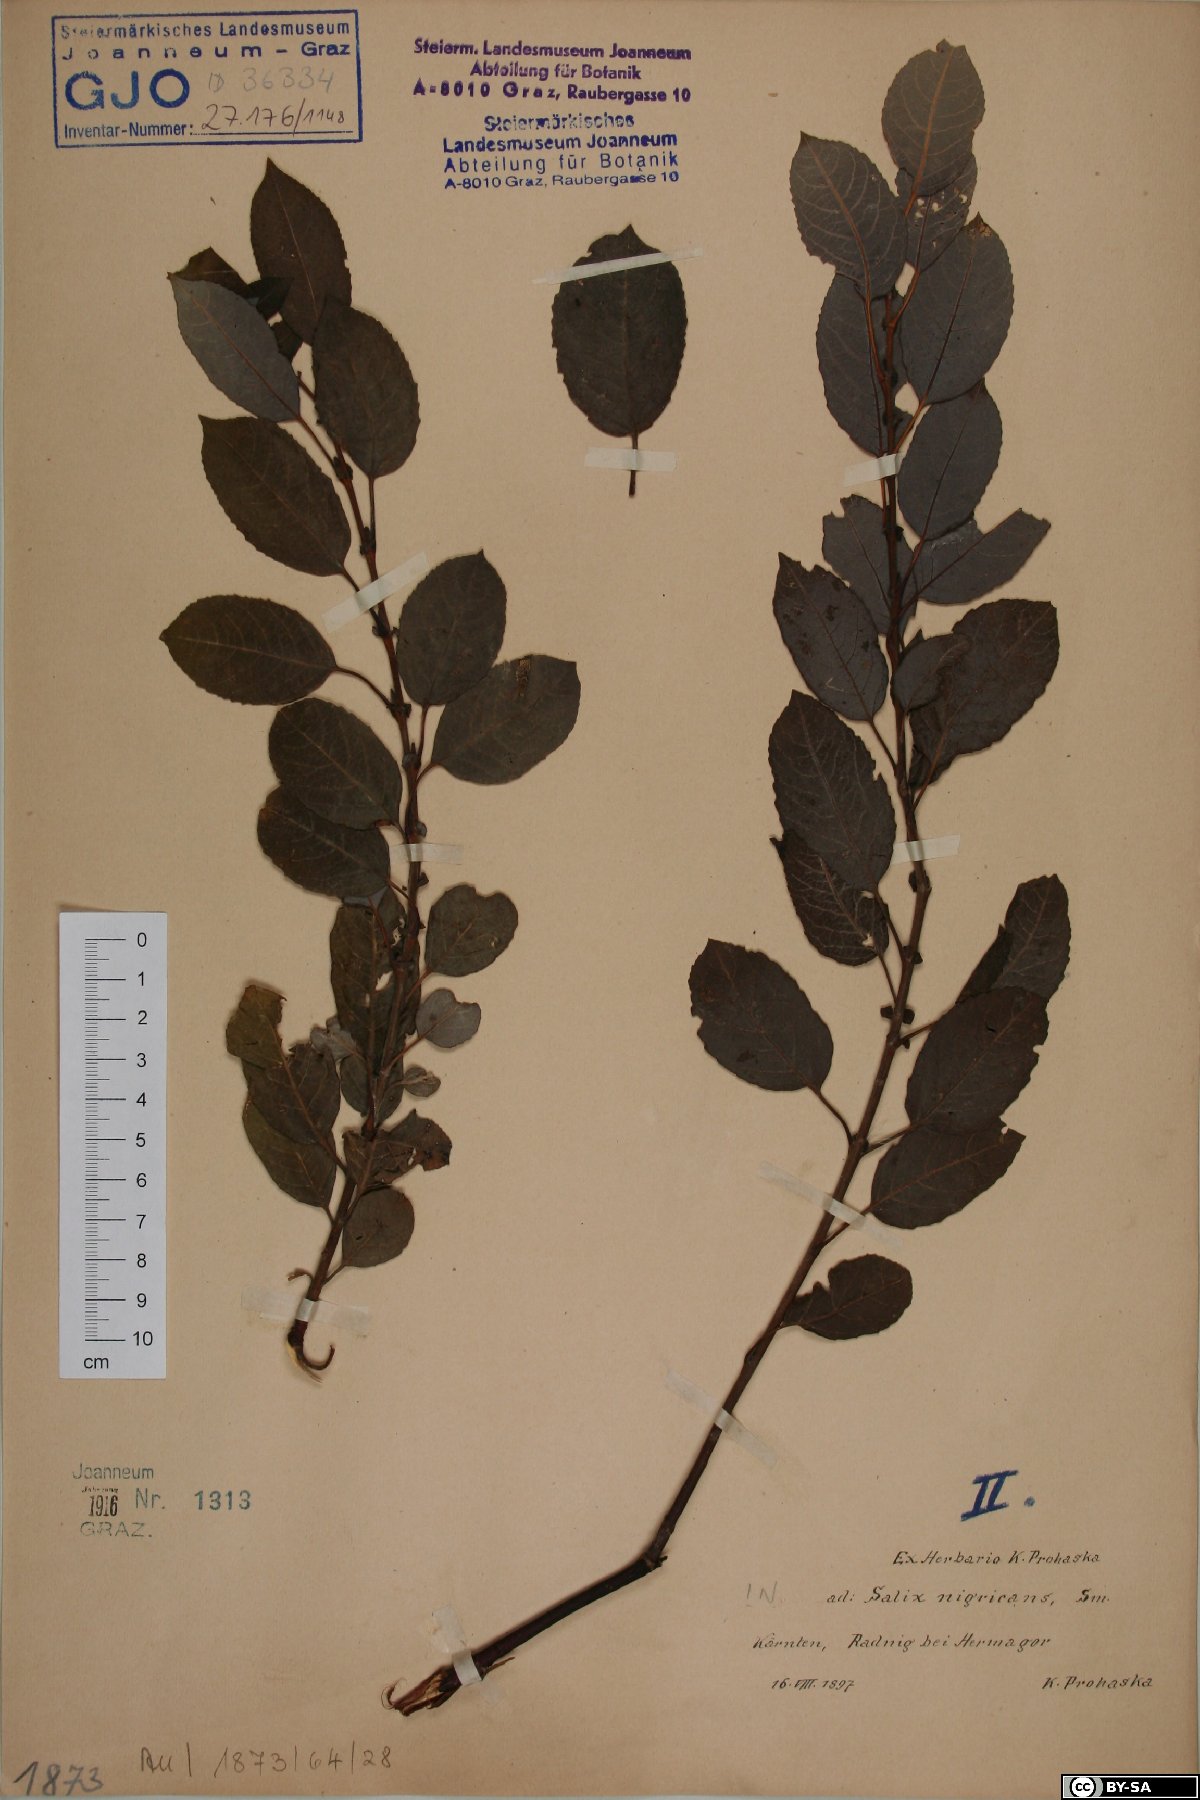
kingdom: Plantae
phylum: Tracheophyta
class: Magnoliopsida
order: Malpighiales
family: Salicaceae
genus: Salix
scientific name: Salix myrsinifolia
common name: Dark-leaved willow
